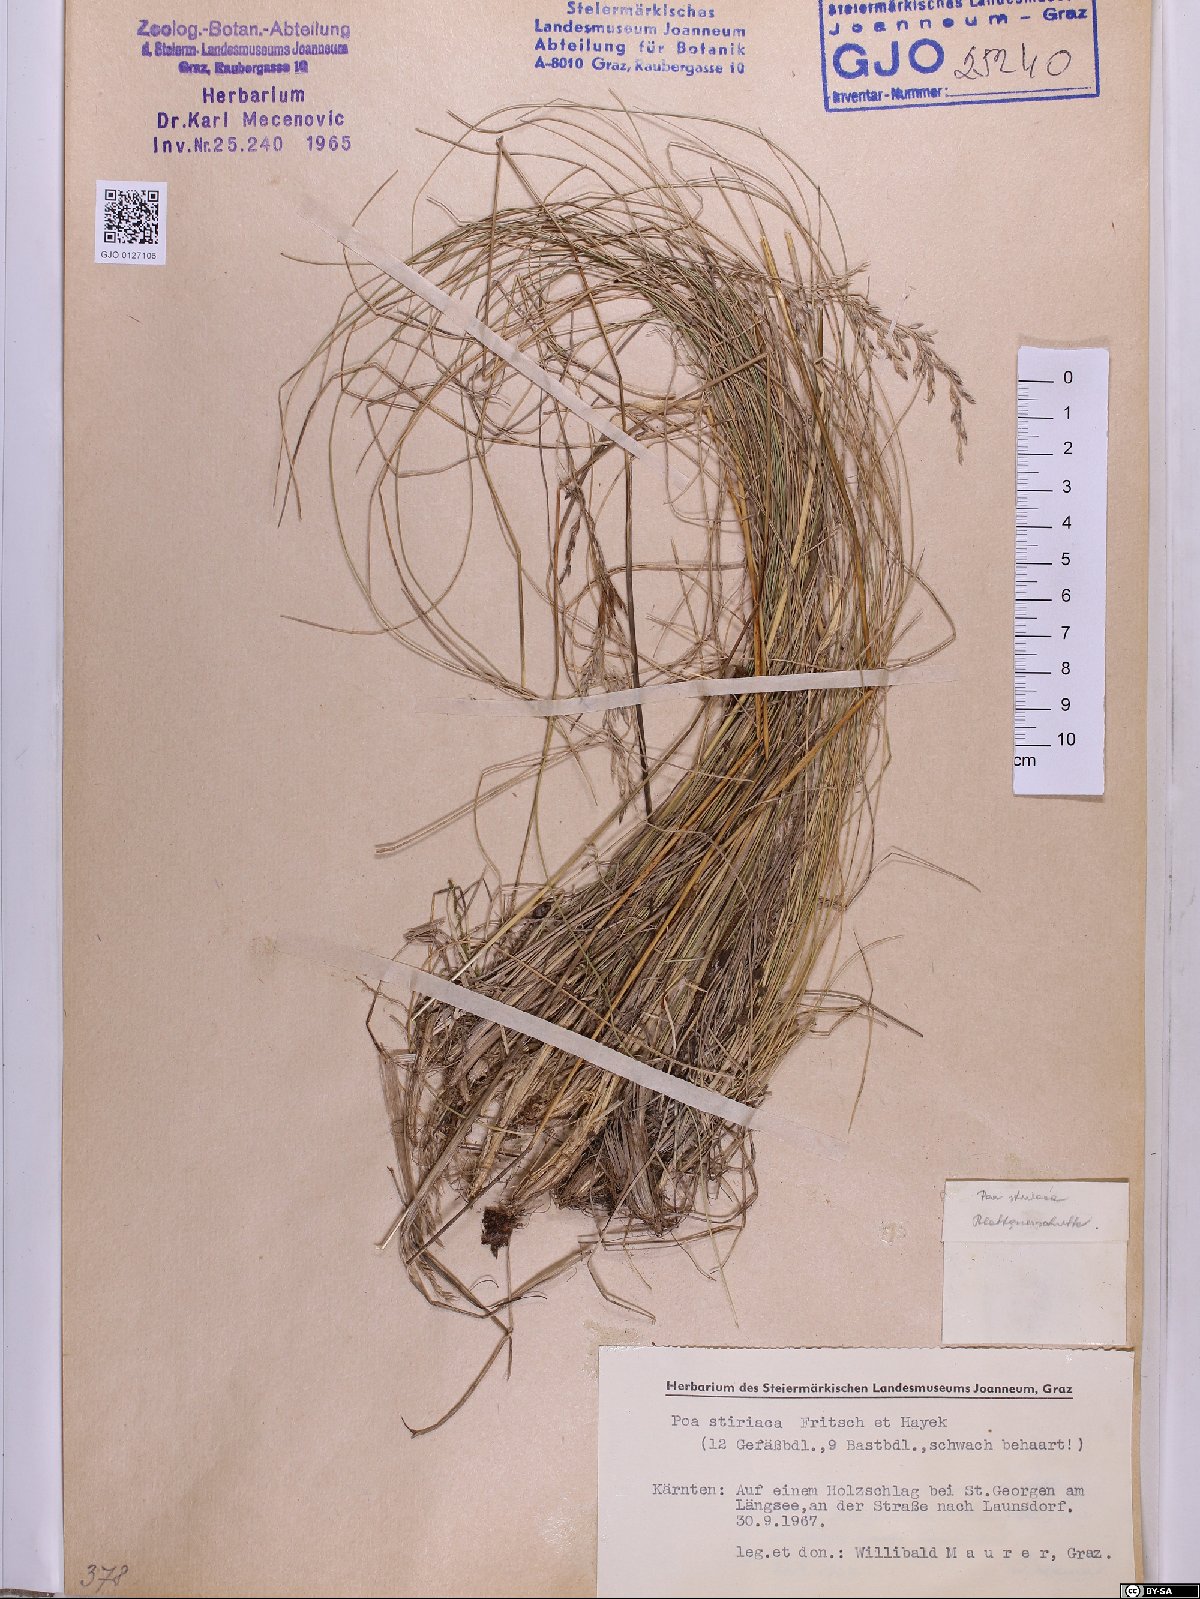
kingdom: Plantae
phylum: Tracheophyta
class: Liliopsida
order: Poales
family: Poaceae
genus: Poa
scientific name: Poa stiriaca
